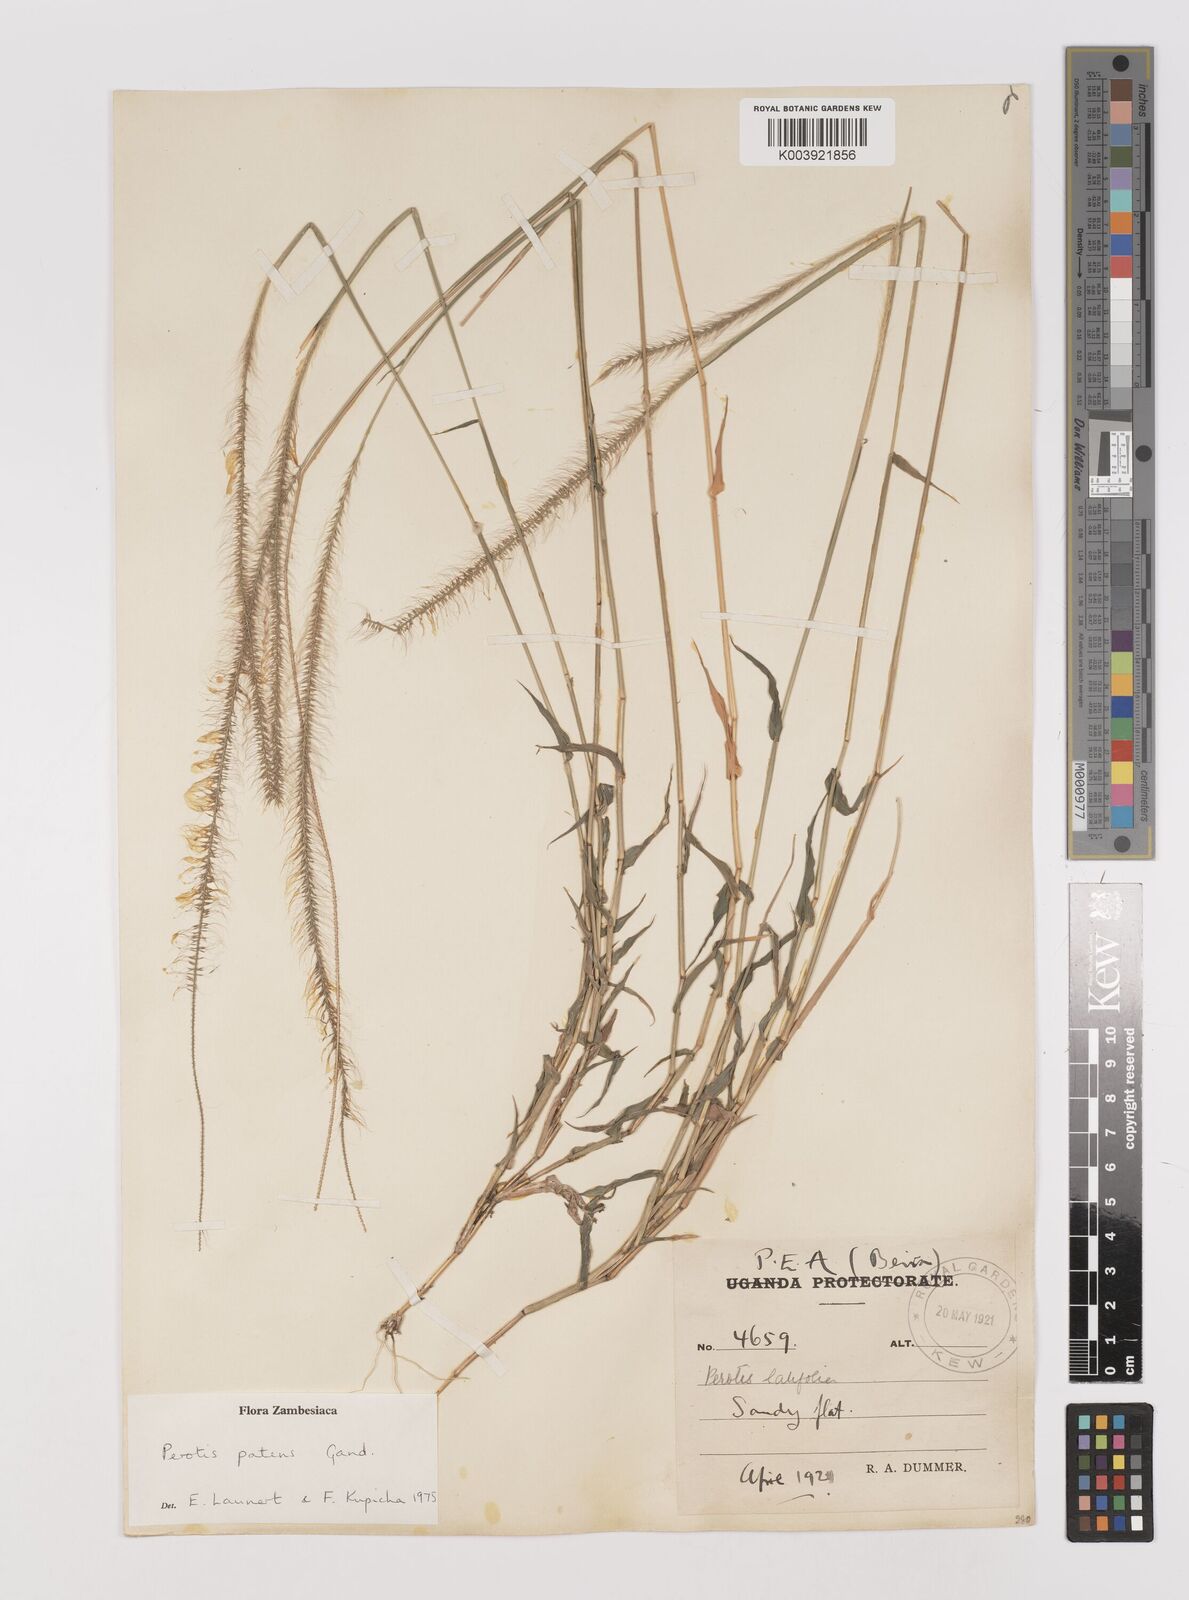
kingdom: Plantae
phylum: Tracheophyta
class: Liliopsida
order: Poales
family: Poaceae
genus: Perotis
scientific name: Perotis patens
